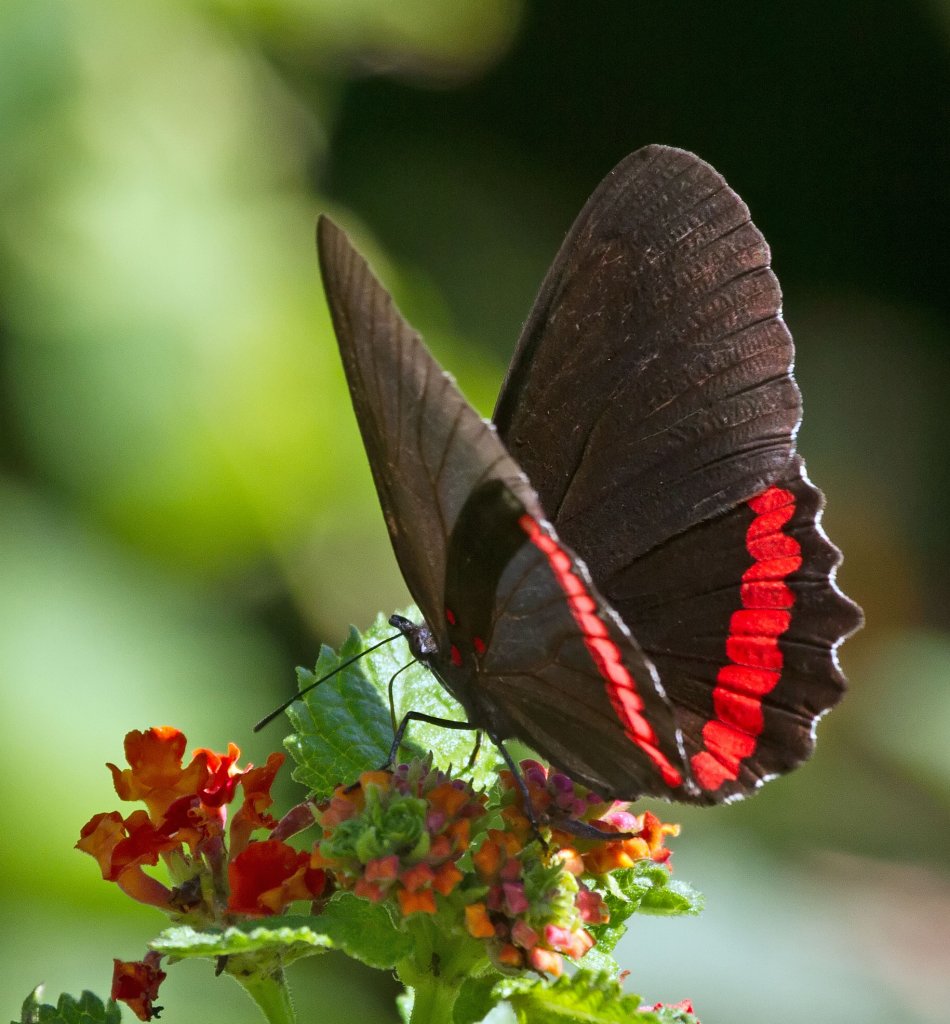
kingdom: Animalia
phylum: Arthropoda
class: Insecta
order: Lepidoptera
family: Sesiidae
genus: Sesia
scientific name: Sesia Biblis hyperia
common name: Red Rim
